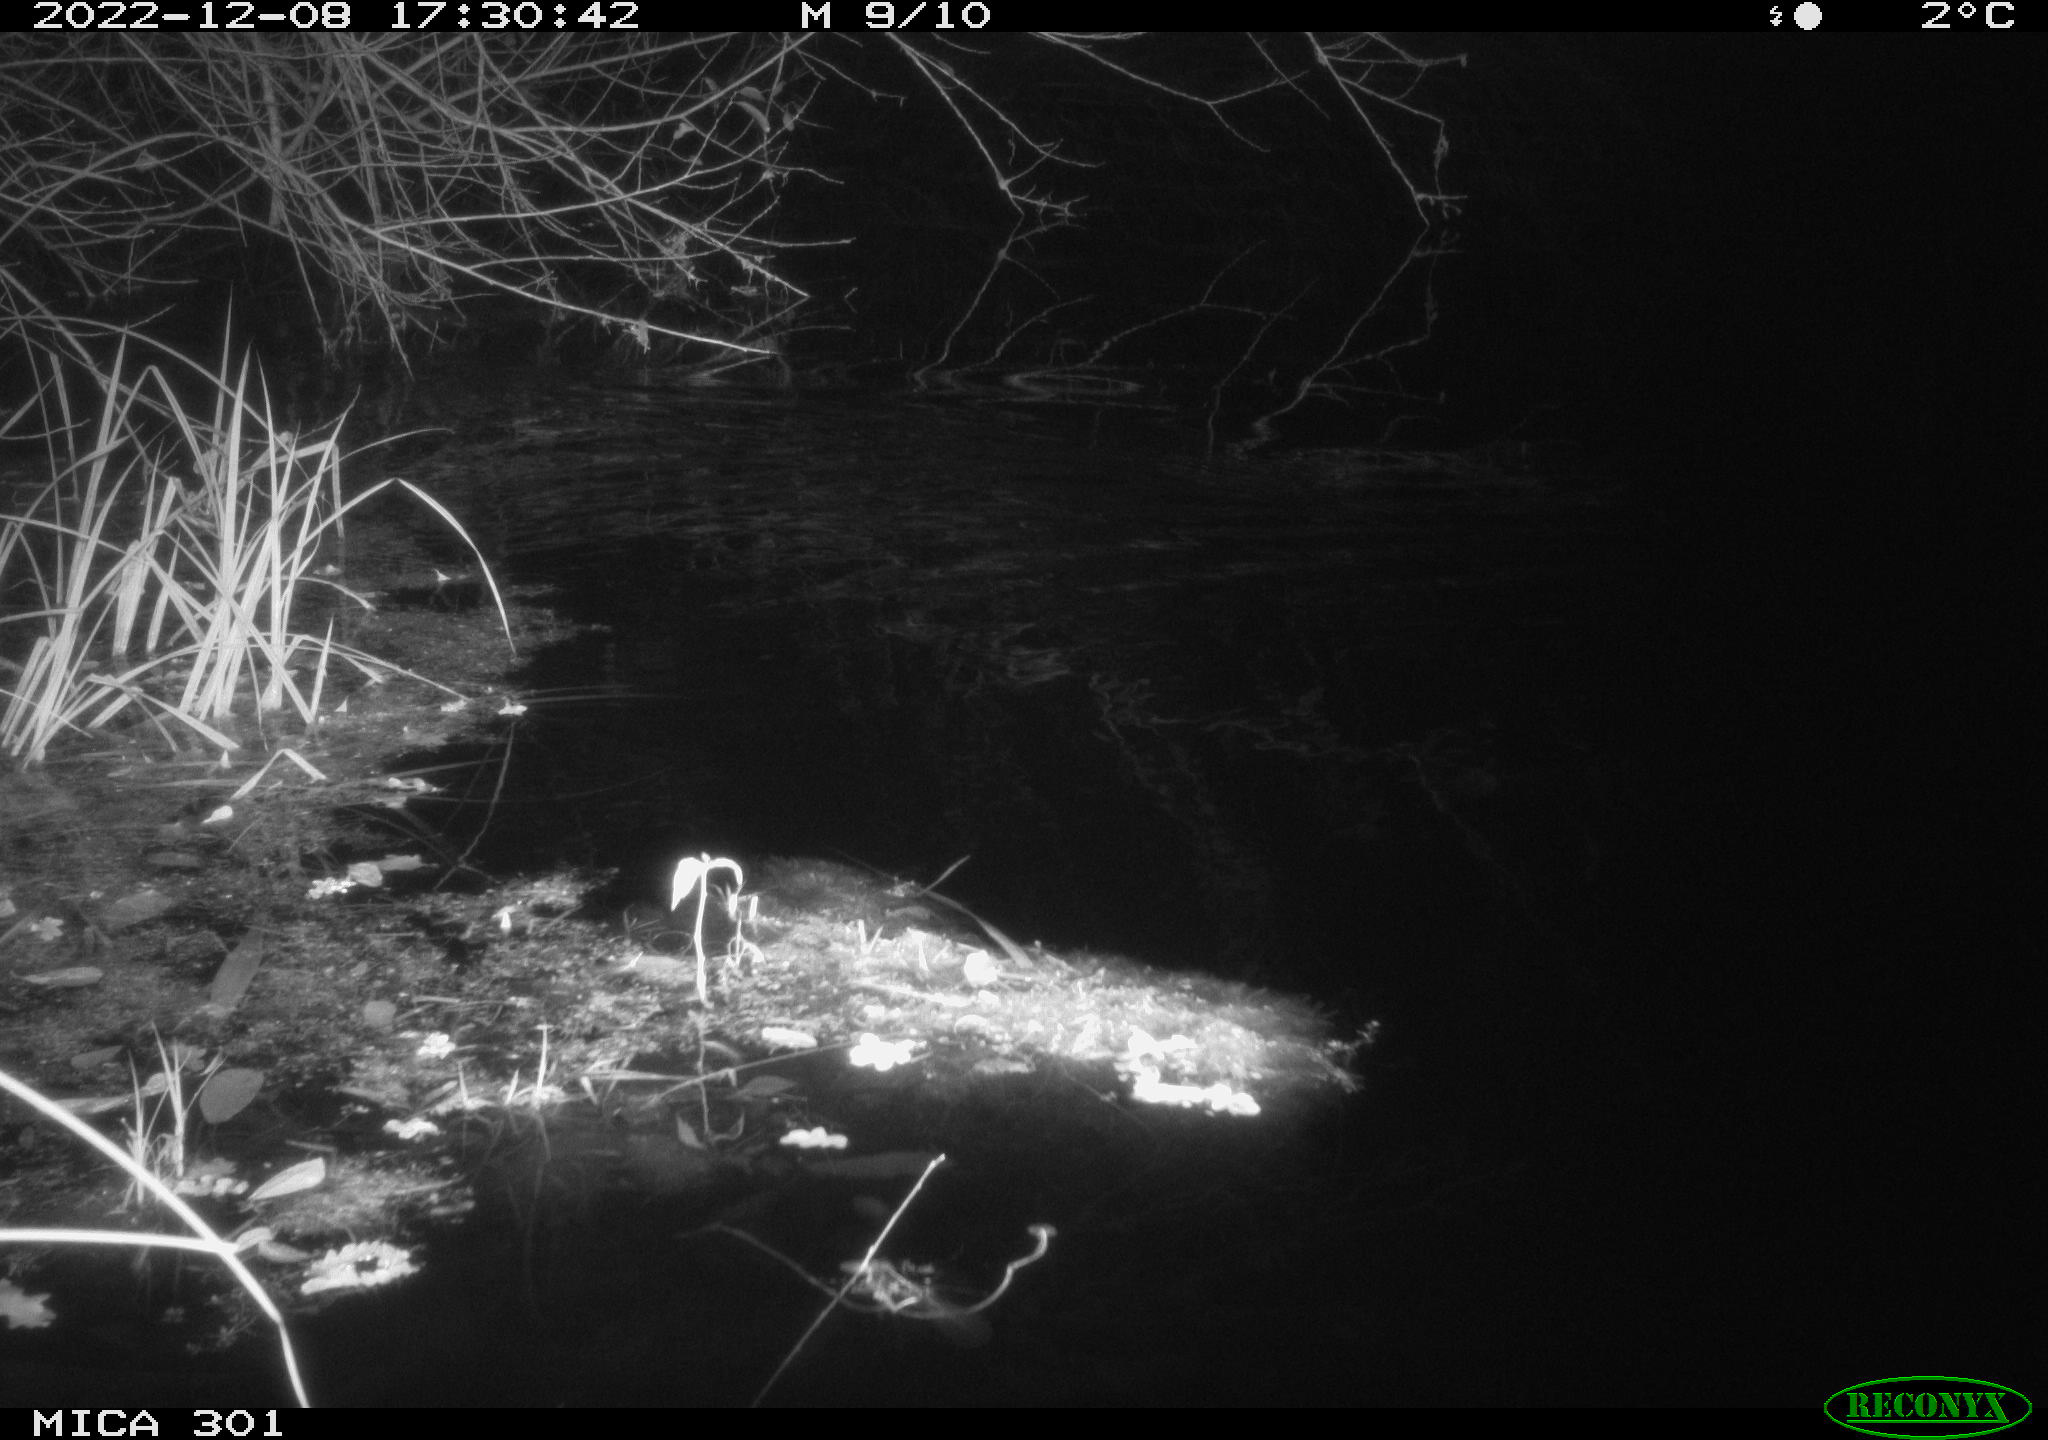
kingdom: Animalia
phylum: Chordata
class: Mammalia
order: Rodentia
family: Muridae
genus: Rattus
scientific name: Rattus norvegicus
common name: Brown rat
